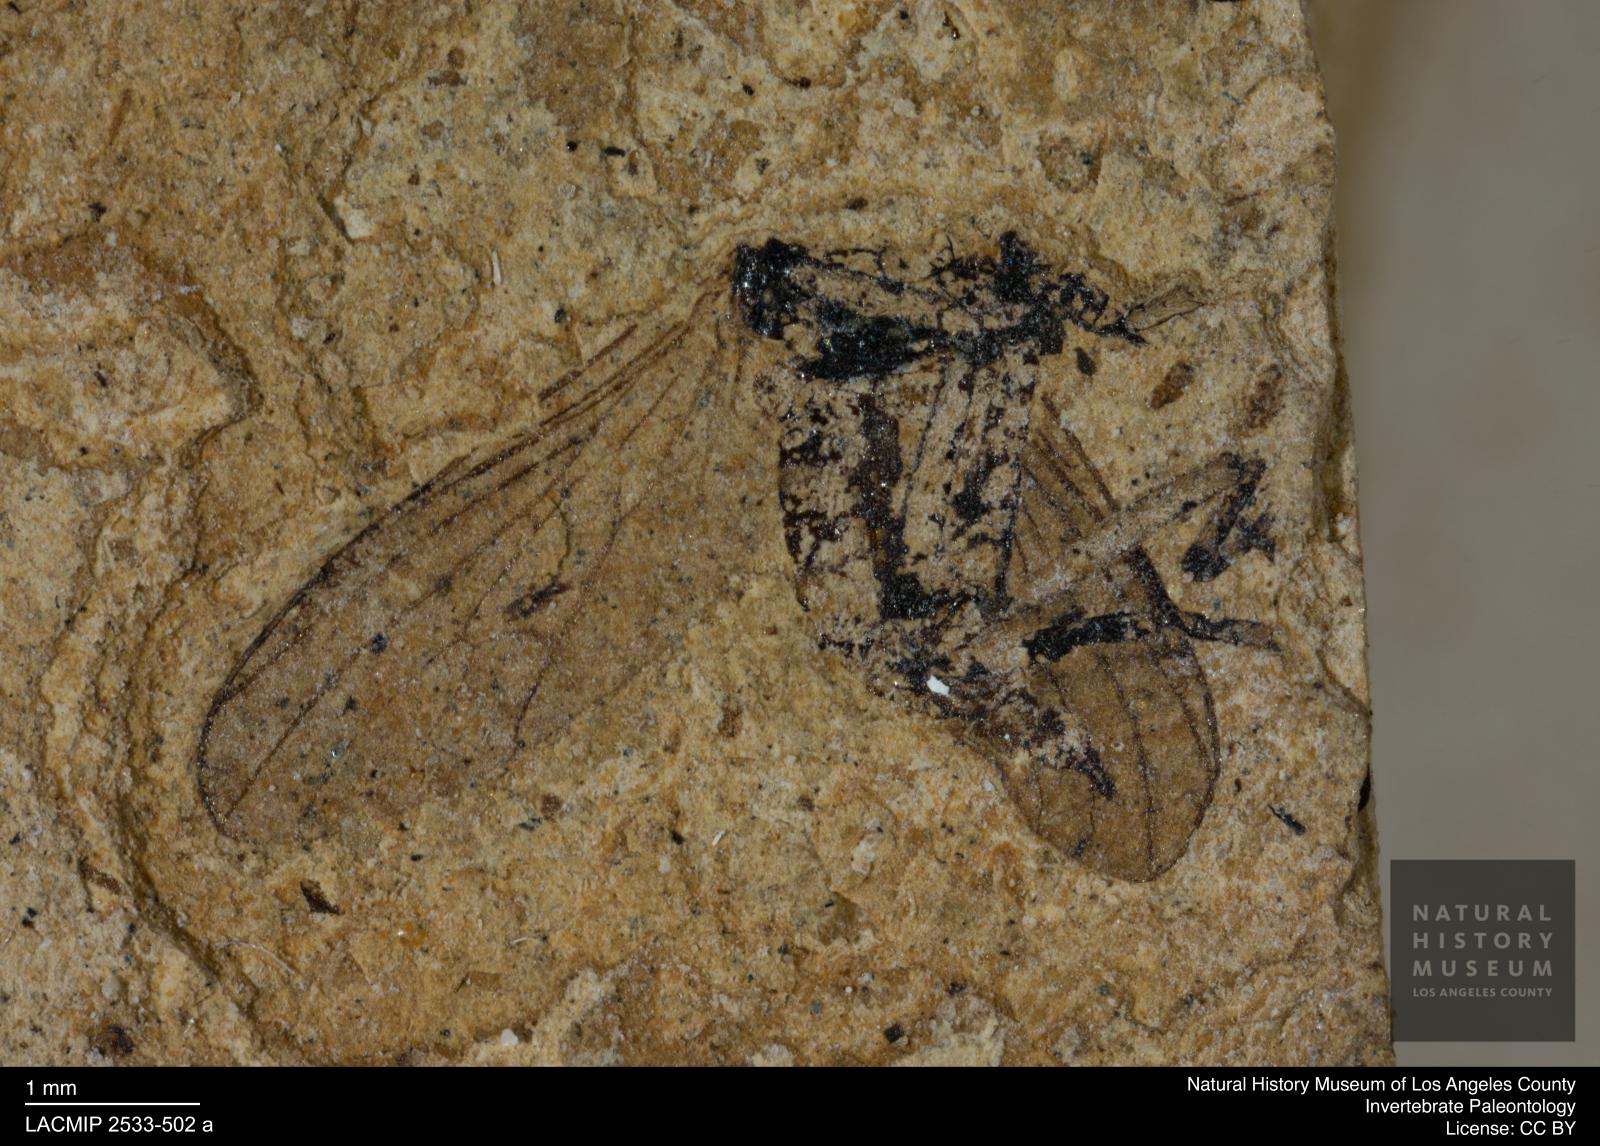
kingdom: Animalia
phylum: Arthropoda
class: Insecta
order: Diptera
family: Empididae
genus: Rhamphomyia
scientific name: Rhamphomyia rottensis
